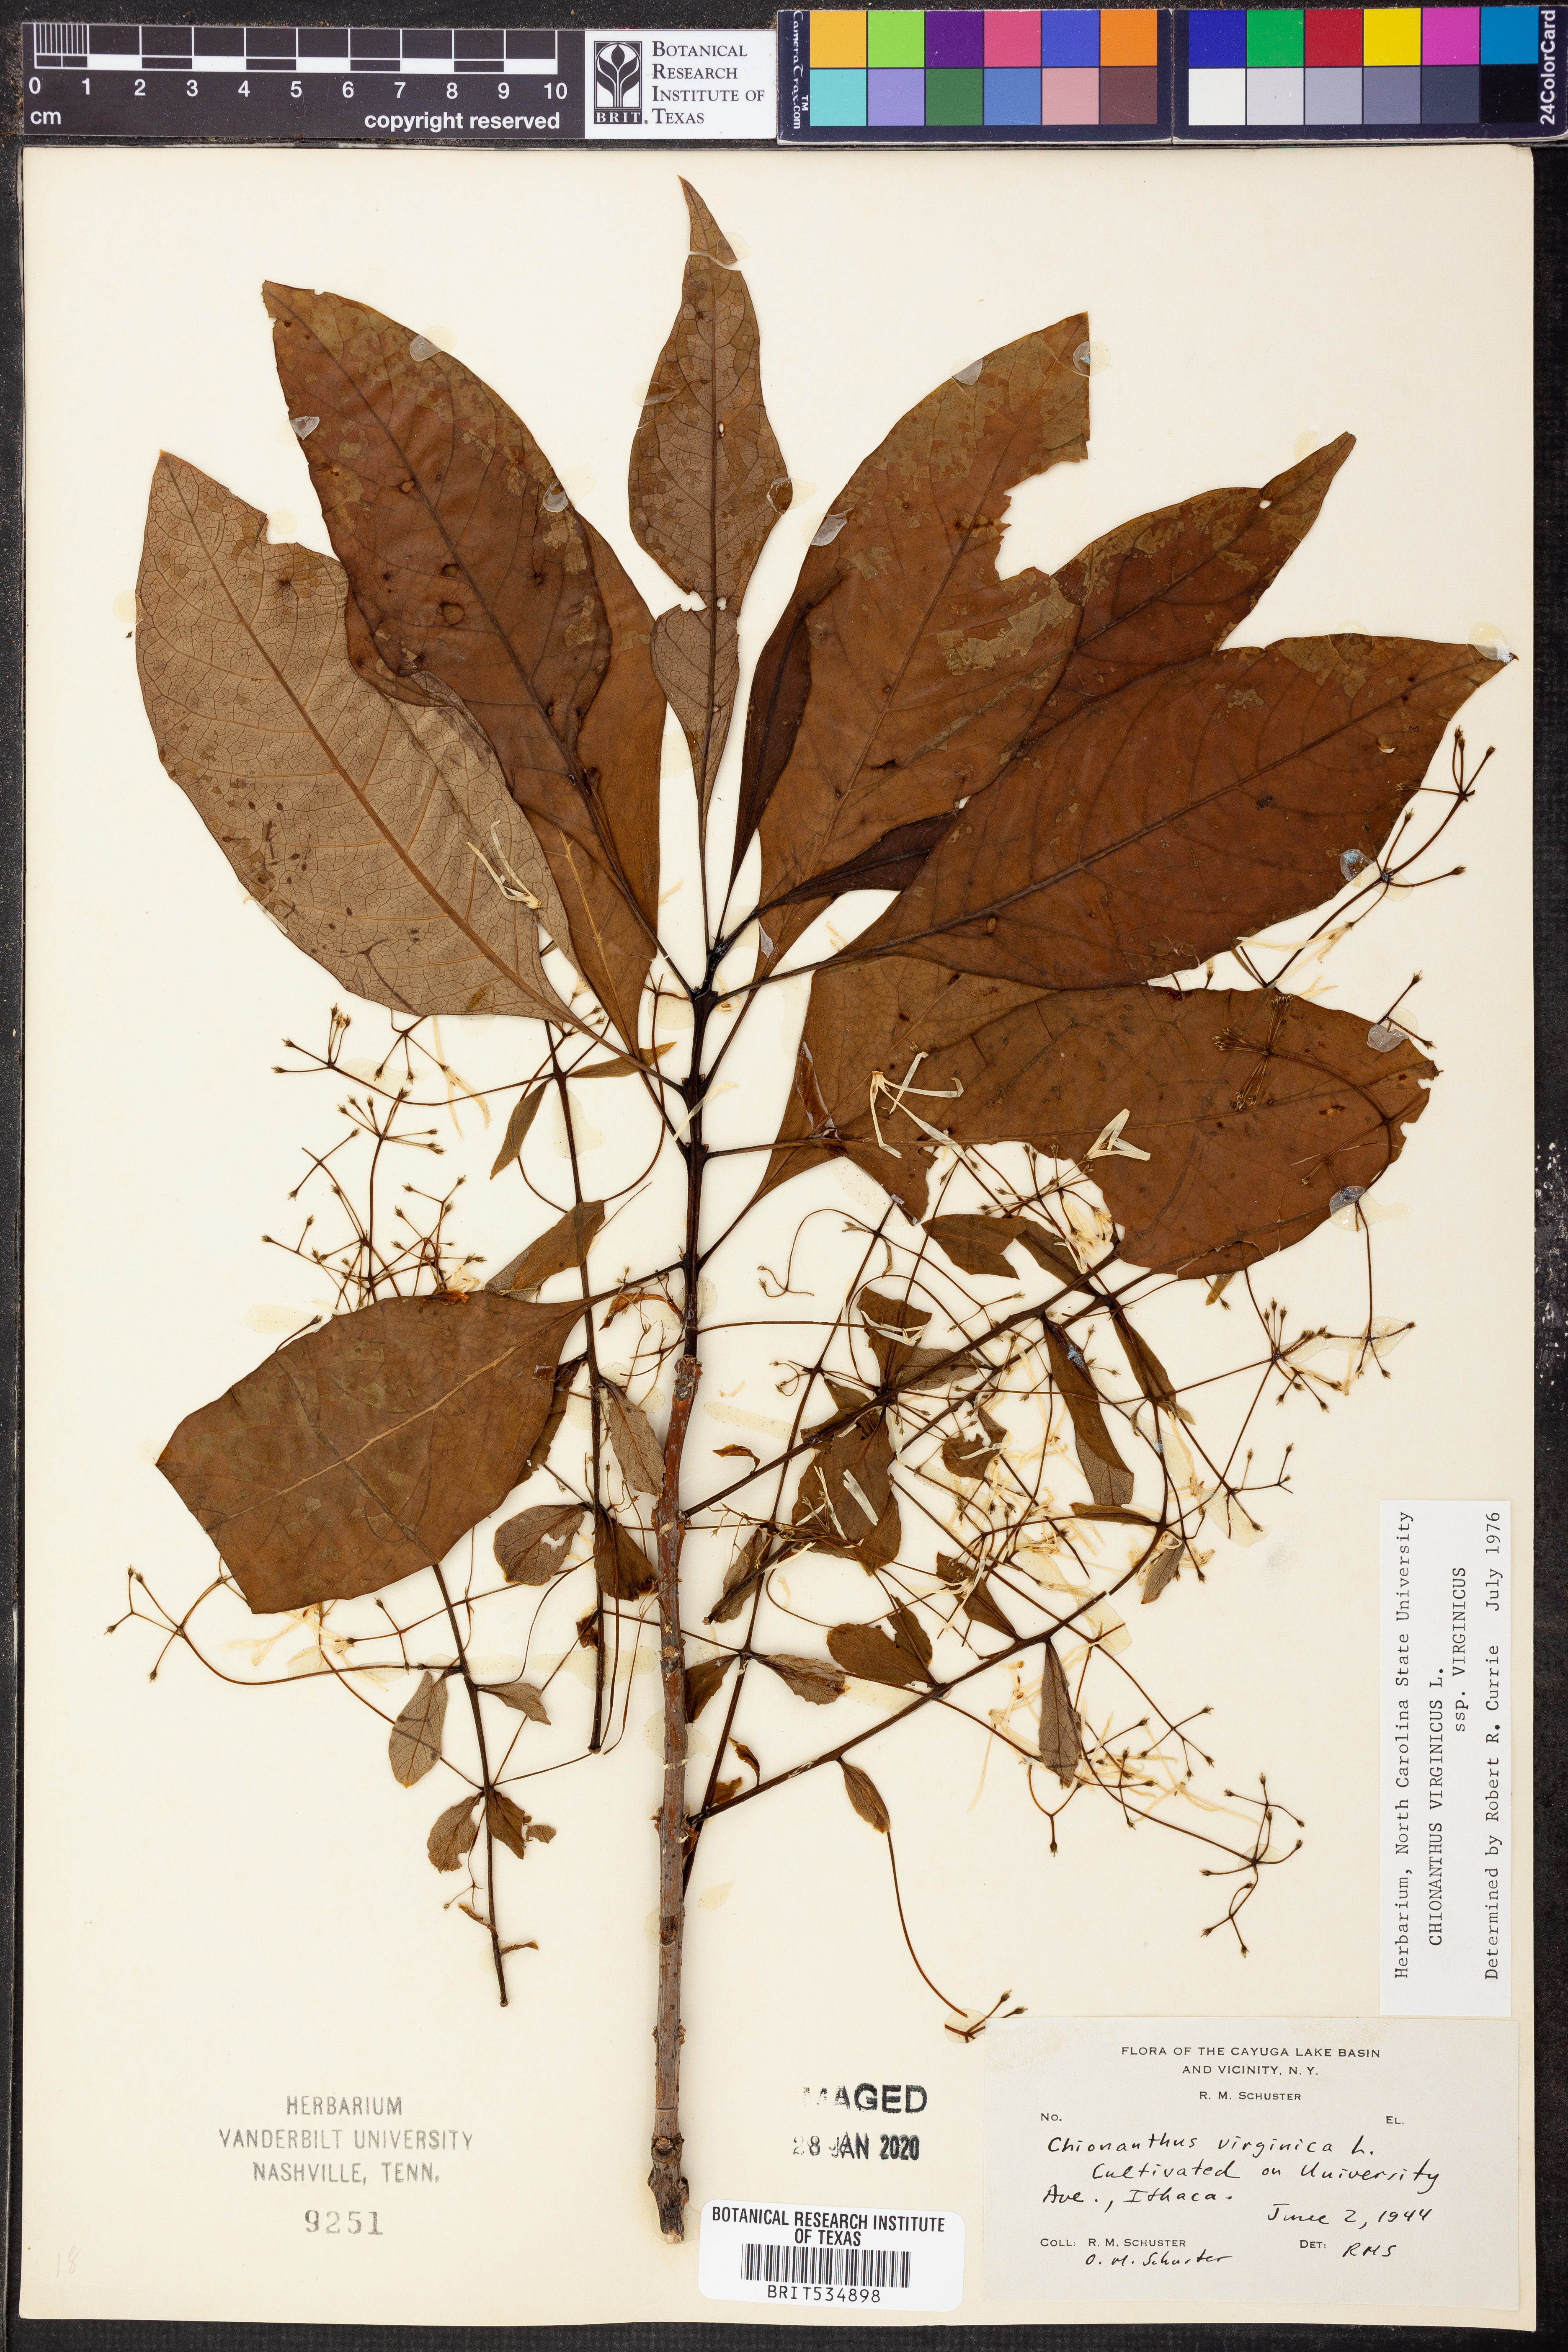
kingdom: Plantae
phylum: Tracheophyta
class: Magnoliopsida
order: Lamiales
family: Oleaceae
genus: Chionanthus
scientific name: Chionanthus virginicus
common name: American fringetree
